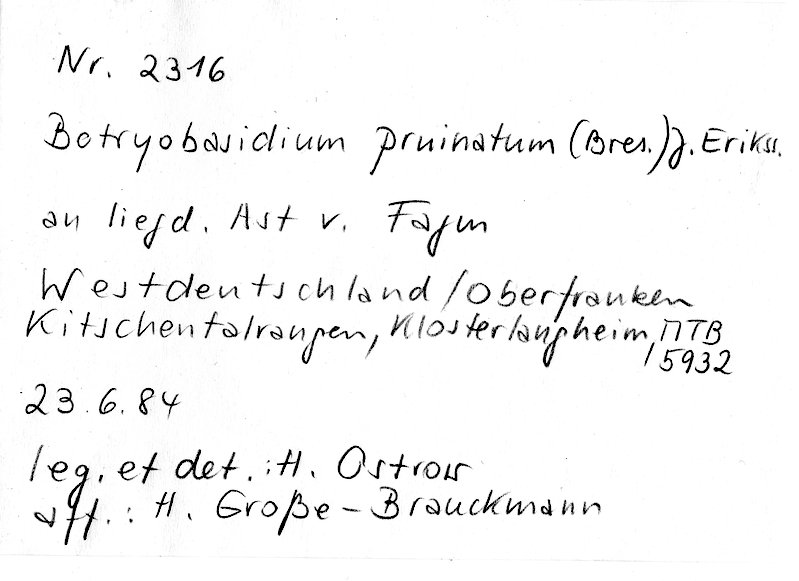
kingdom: Plantae
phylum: Tracheophyta
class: Magnoliopsida
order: Fagales
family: Fagaceae
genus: Fagus
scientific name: Fagus sylvatica
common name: Beech
